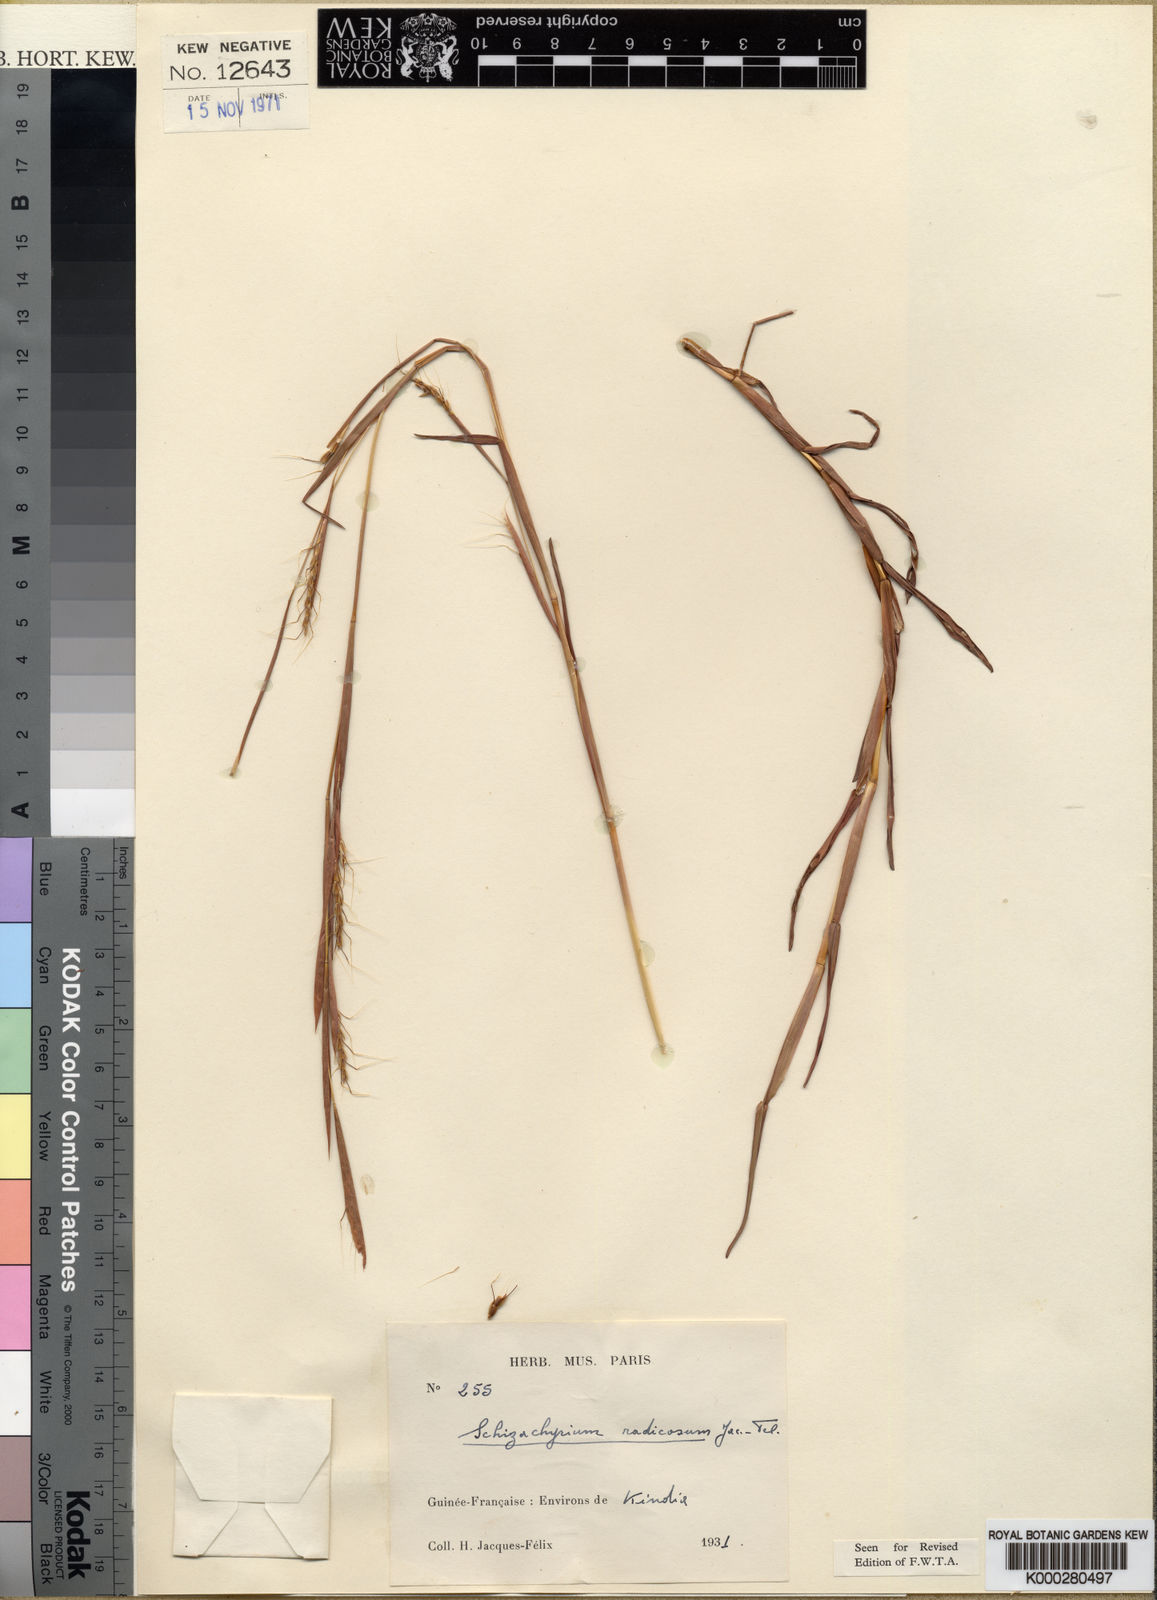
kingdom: Plantae
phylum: Tracheophyta
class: Liliopsida
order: Poales
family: Poaceae
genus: Schizachyrium
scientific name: Schizachyrium
